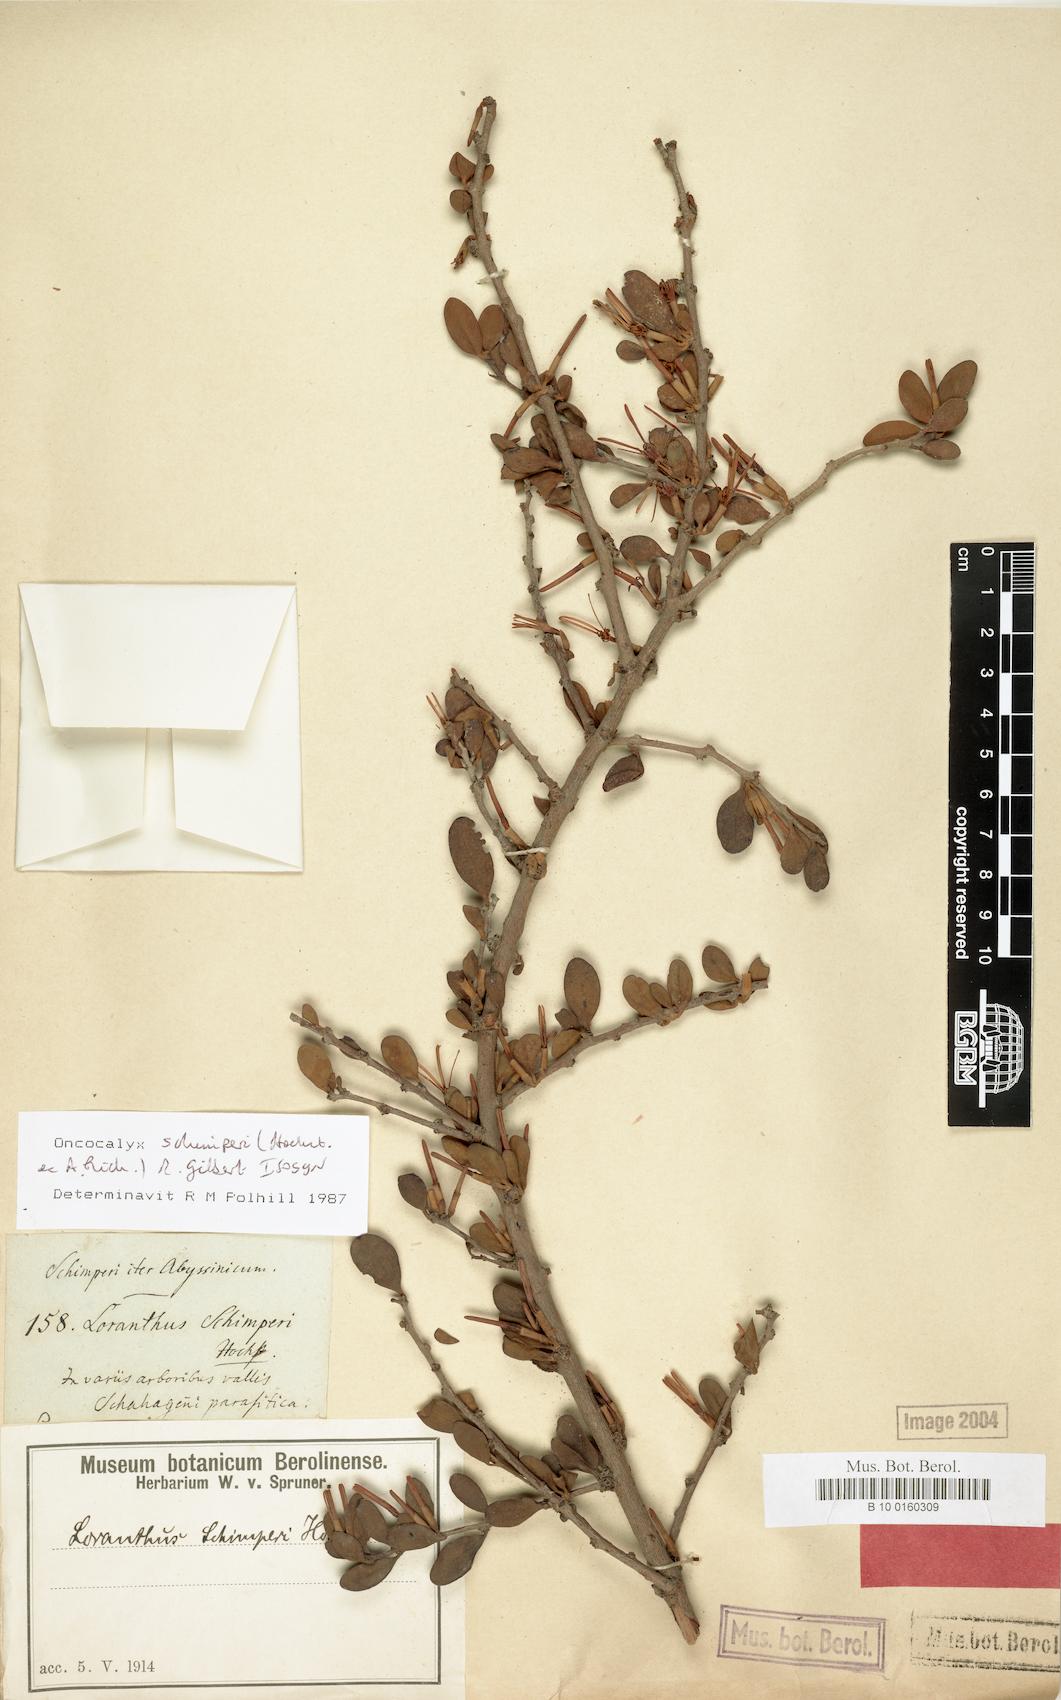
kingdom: Plantae
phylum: Tracheophyta
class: Magnoliopsida
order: Santalales
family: Loranthaceae
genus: Loranthella
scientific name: Loranthella
